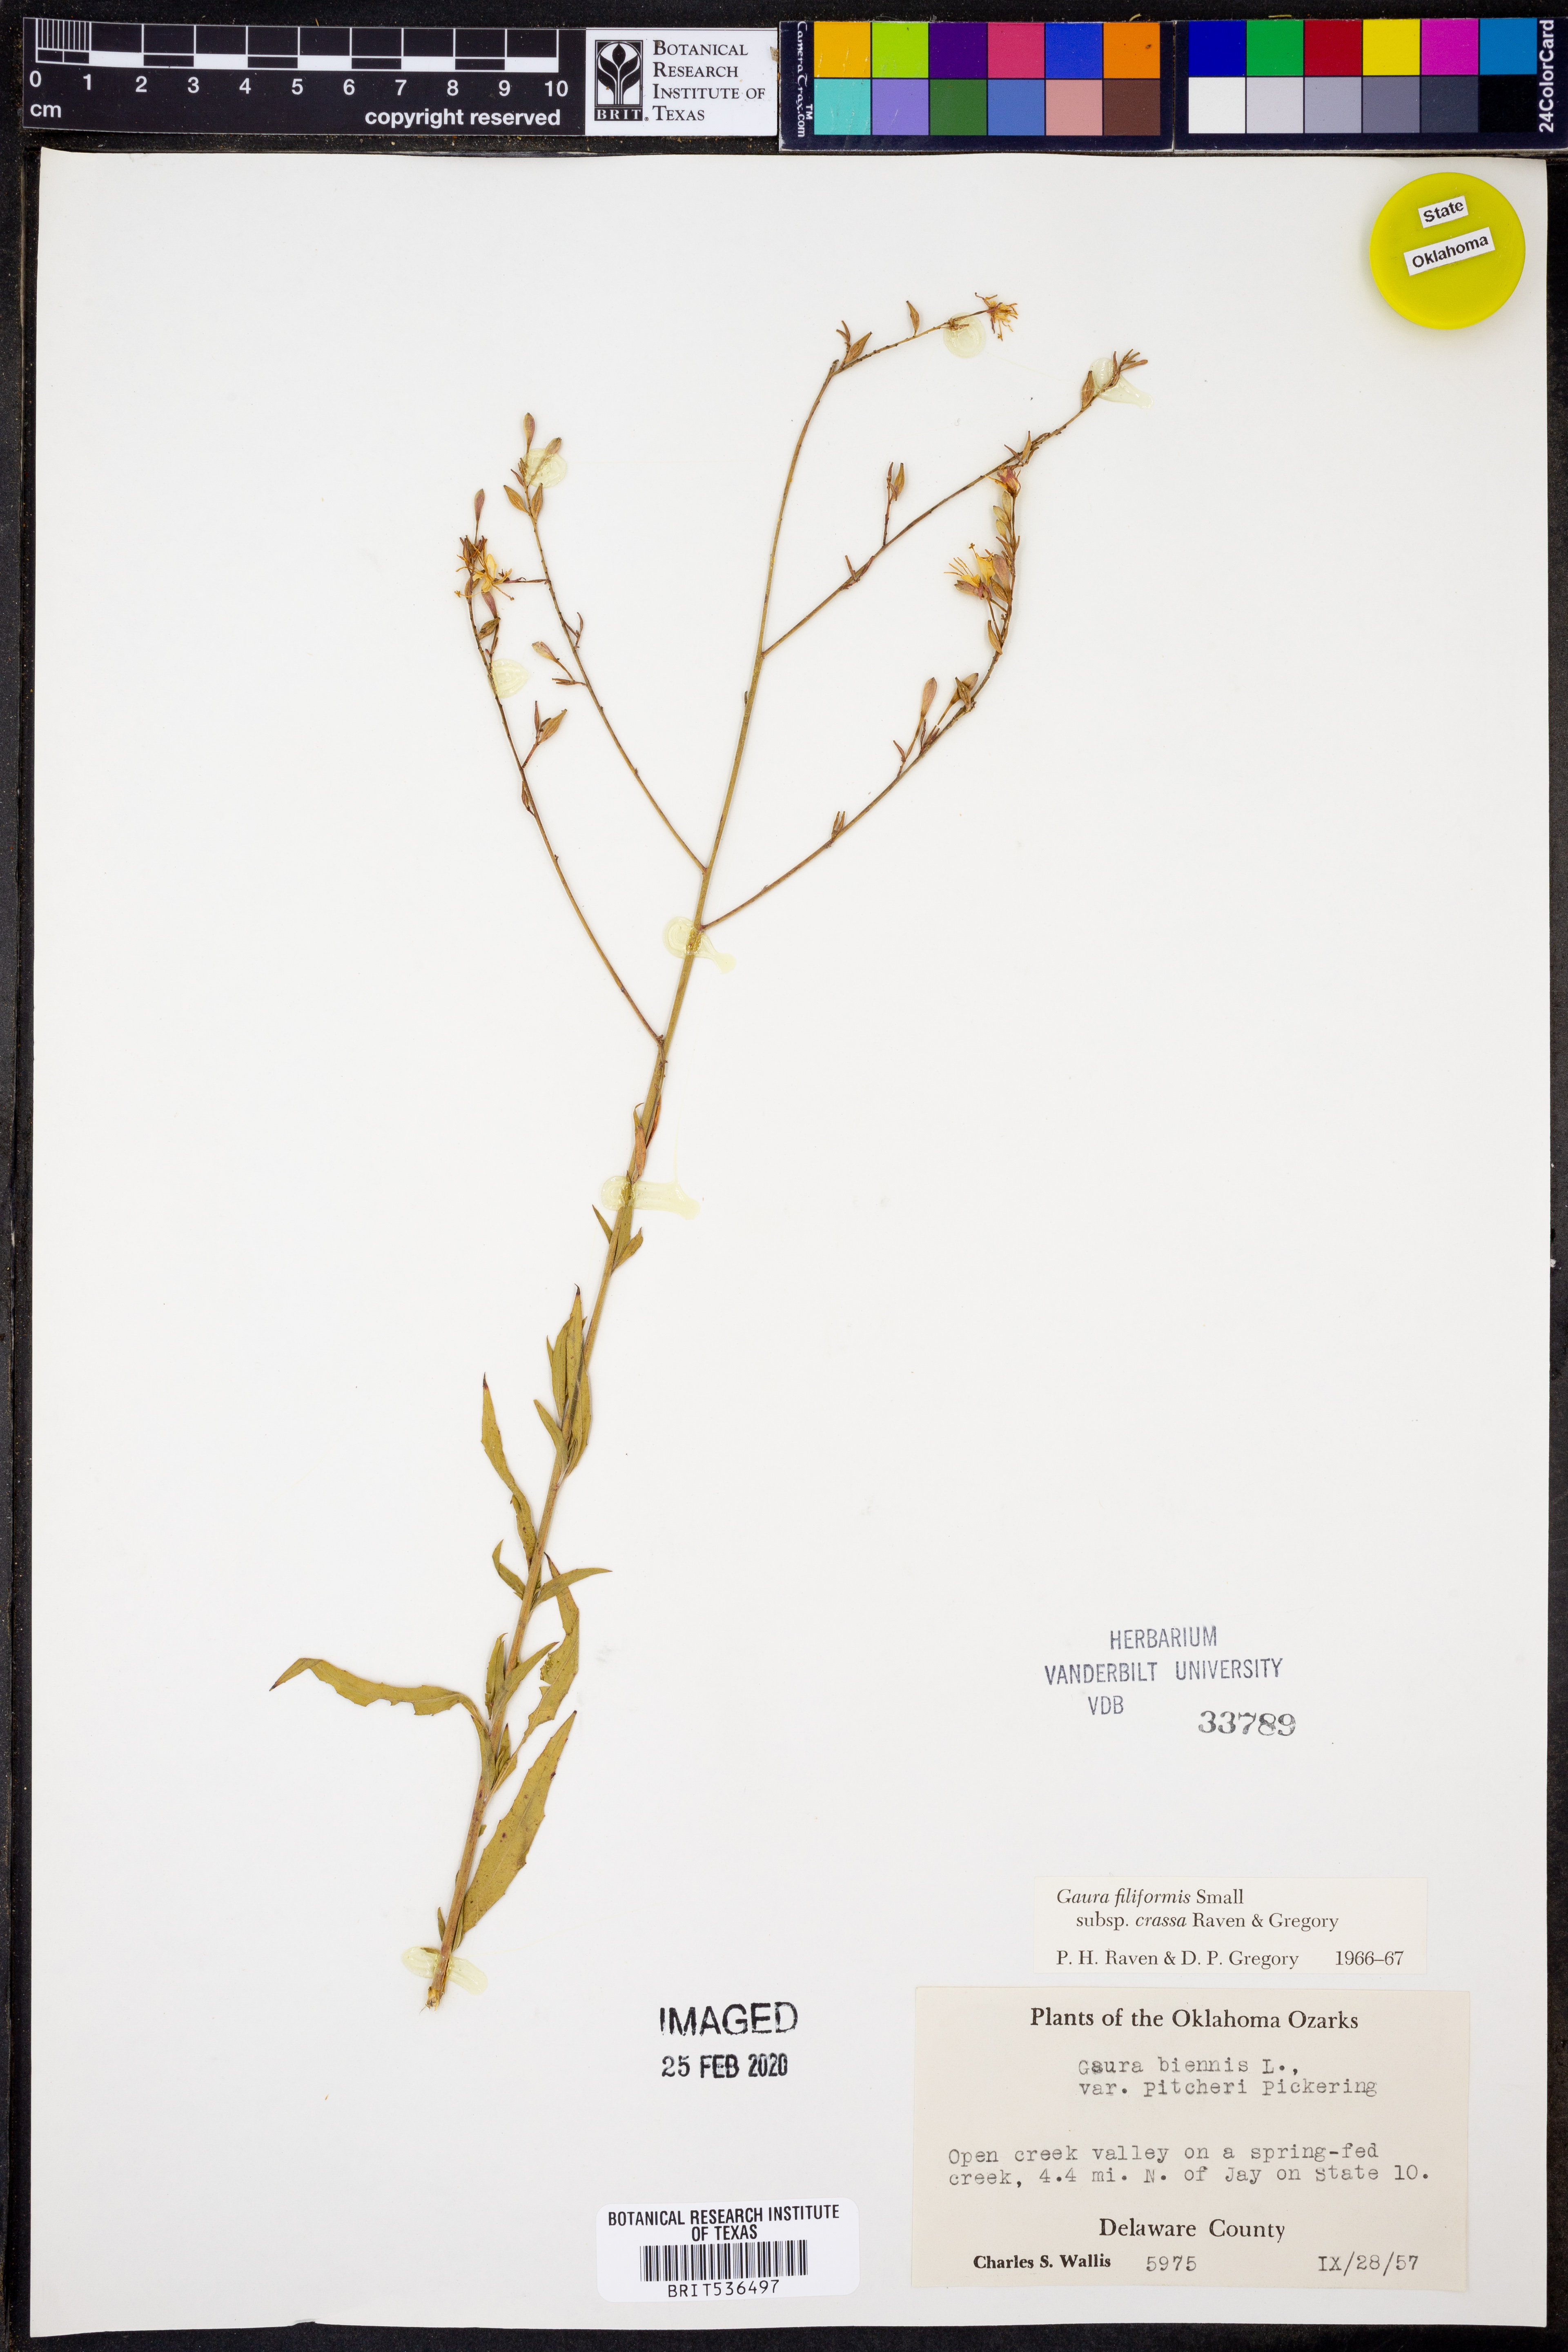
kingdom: Plantae
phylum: Tracheophyta
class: Magnoliopsida
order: Myrtales
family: Onagraceae
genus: Oenothera
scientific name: Oenothera filiformis
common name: Longflower beeblossom
